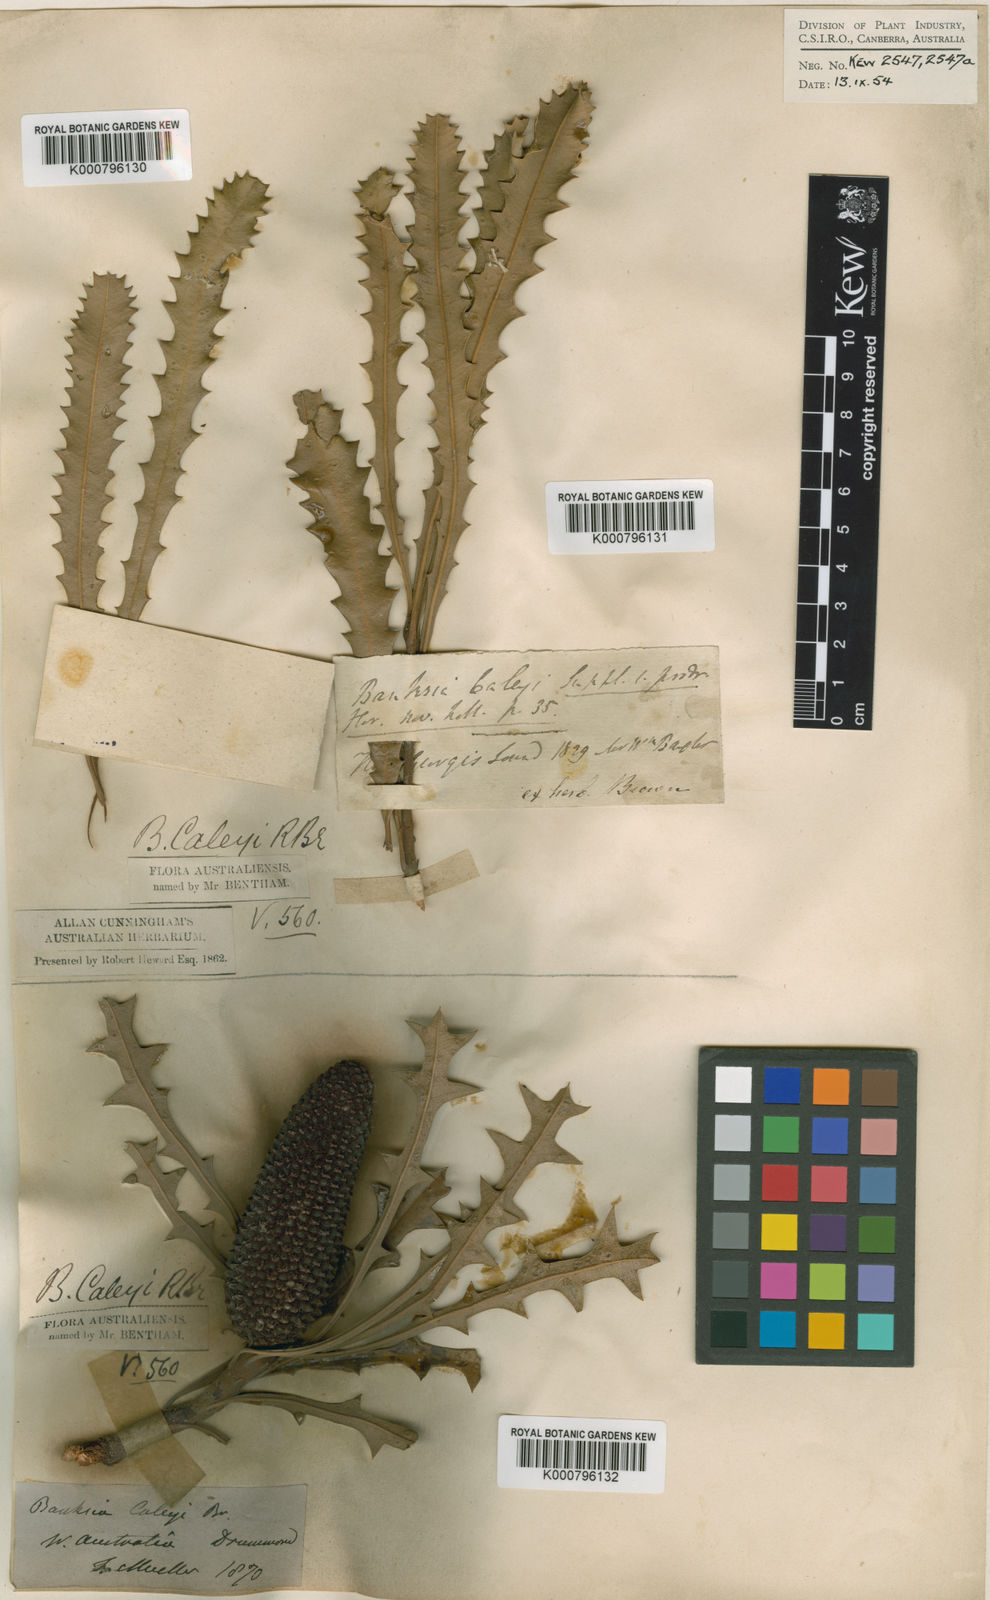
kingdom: Plantae
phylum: Tracheophyta
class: Magnoliopsida
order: Proteales
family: Proteaceae
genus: Banksia
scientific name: Banksia caleyi
